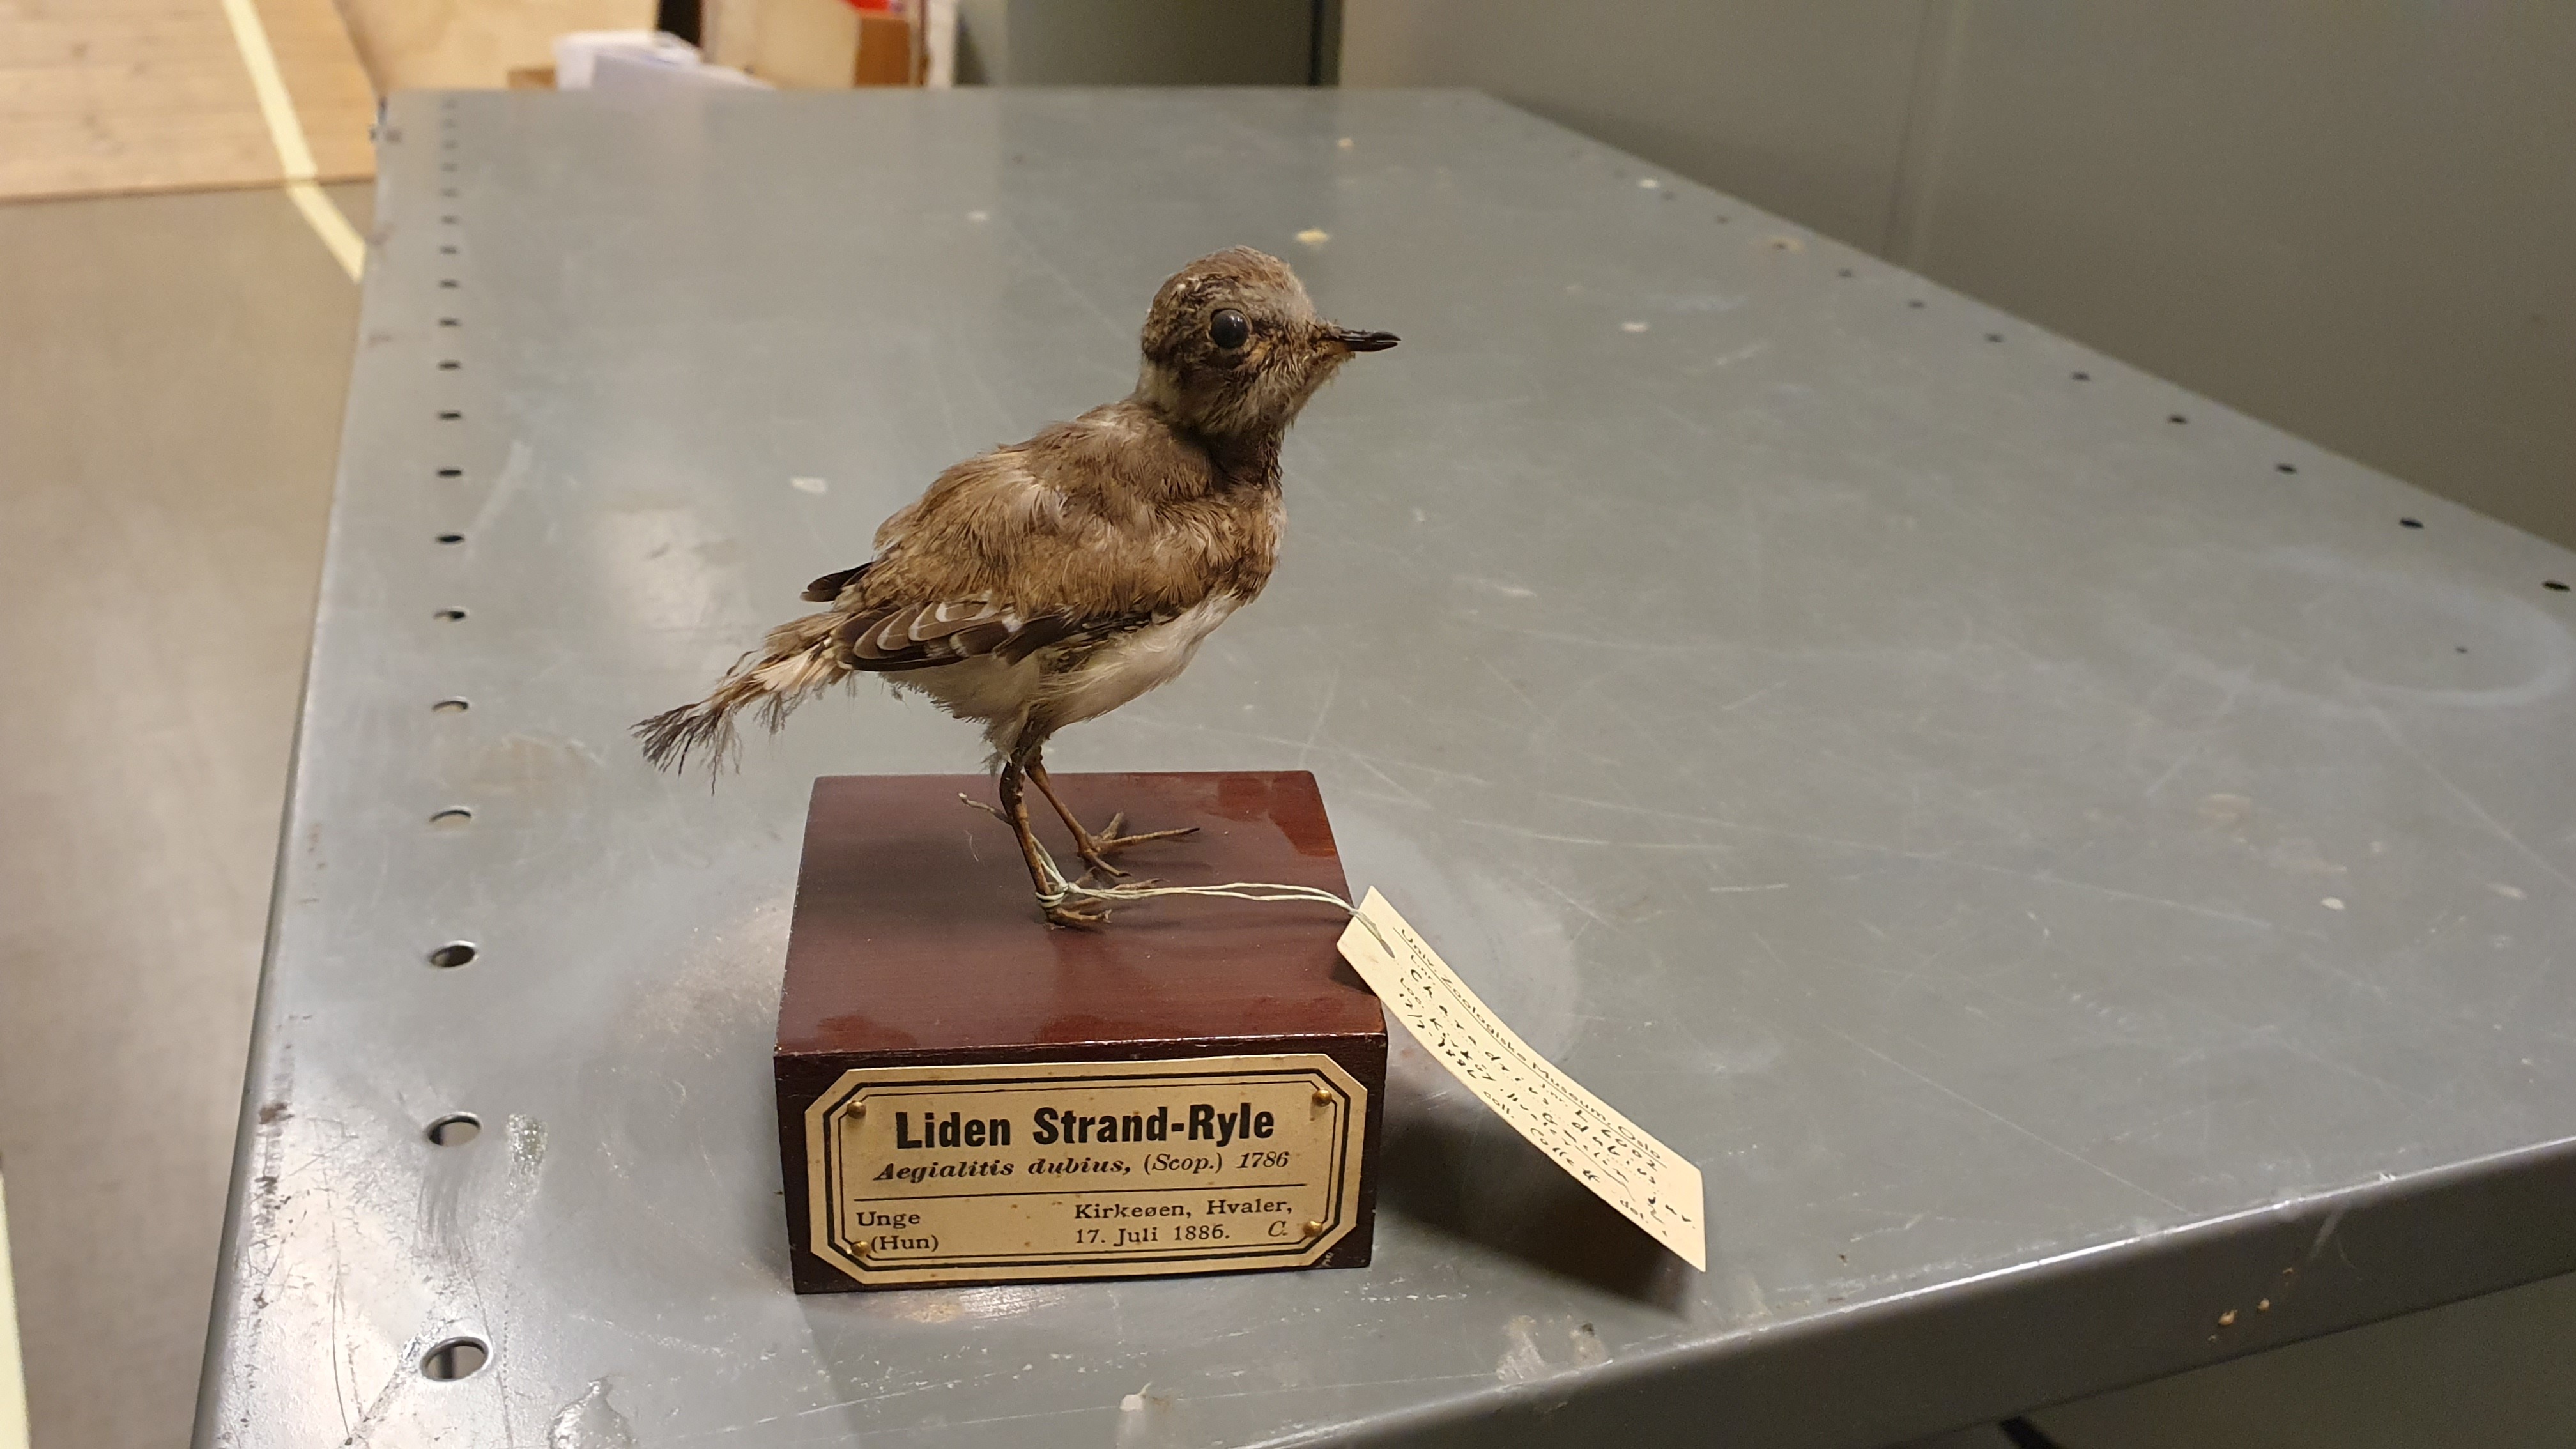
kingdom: Animalia
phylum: Chordata
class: Aves
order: Charadriiformes
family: Charadriidae
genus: Charadrius
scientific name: Charadrius dubius
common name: Little ringed plover
